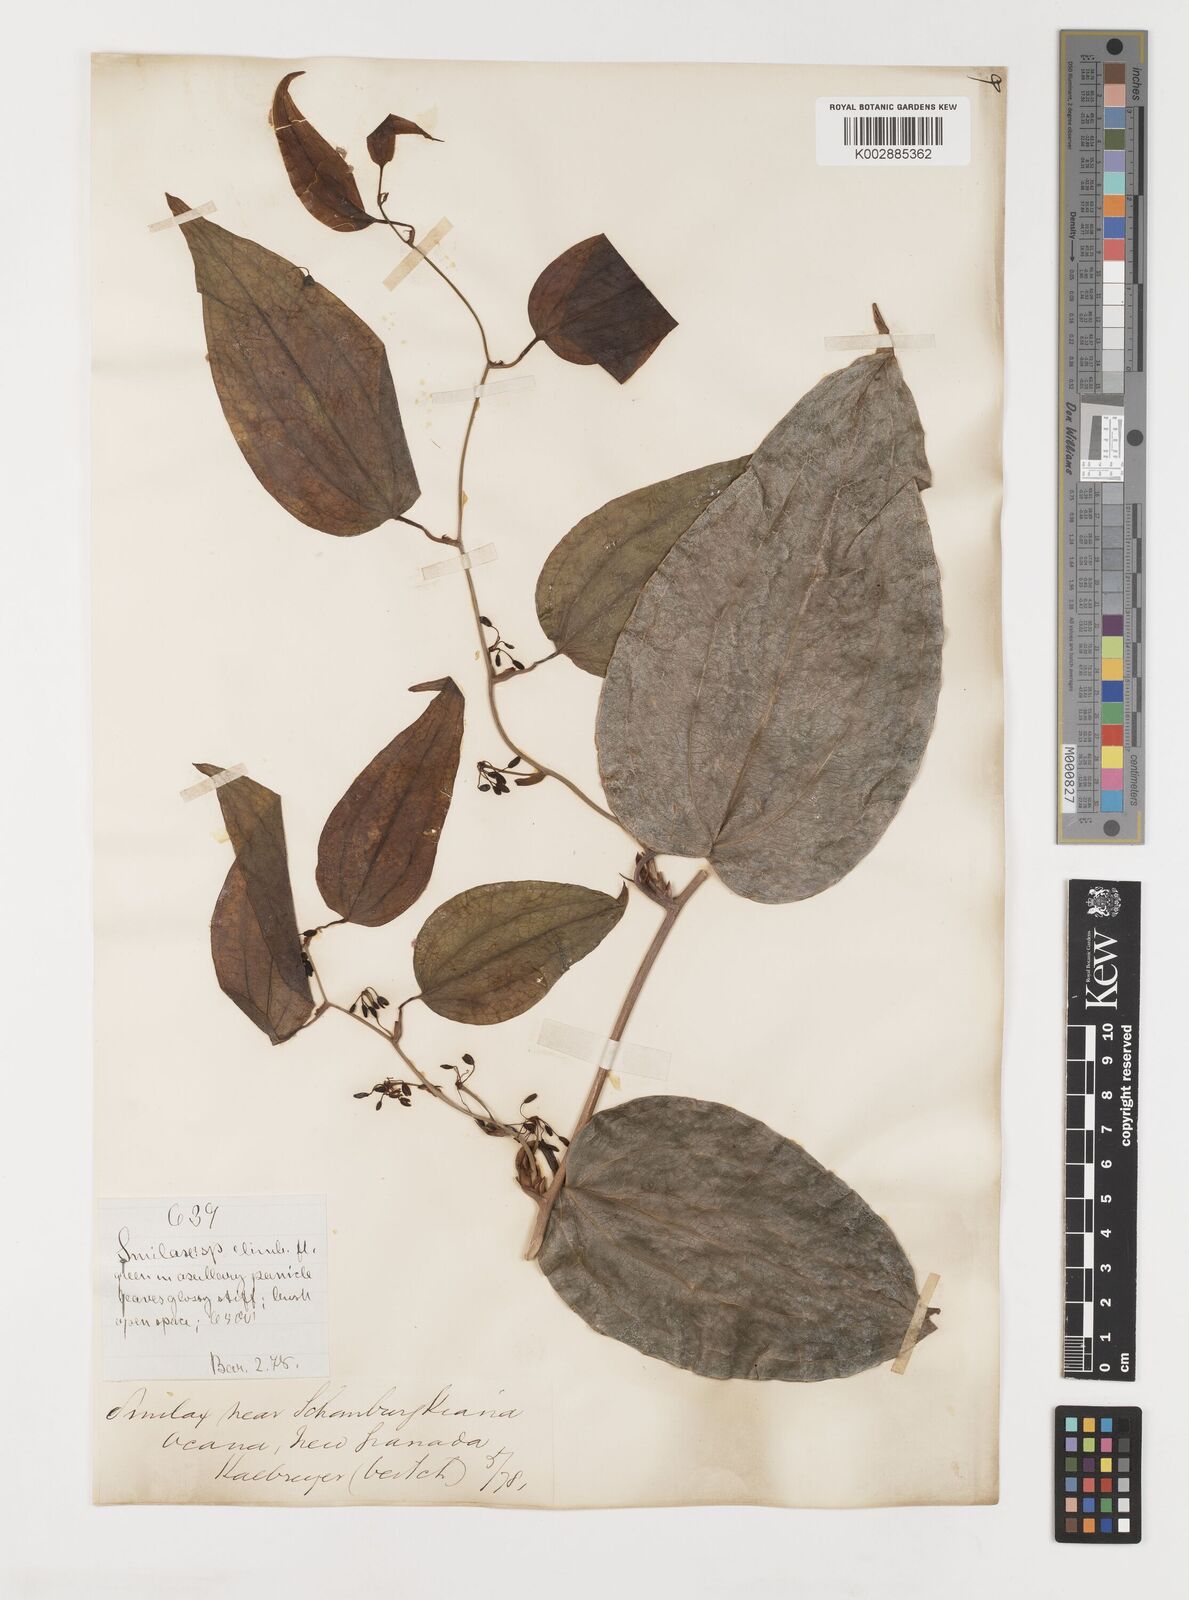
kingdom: Plantae
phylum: Tracheophyta
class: Liliopsida
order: Liliales
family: Smilacaceae
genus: Smilax
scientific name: Smilax
